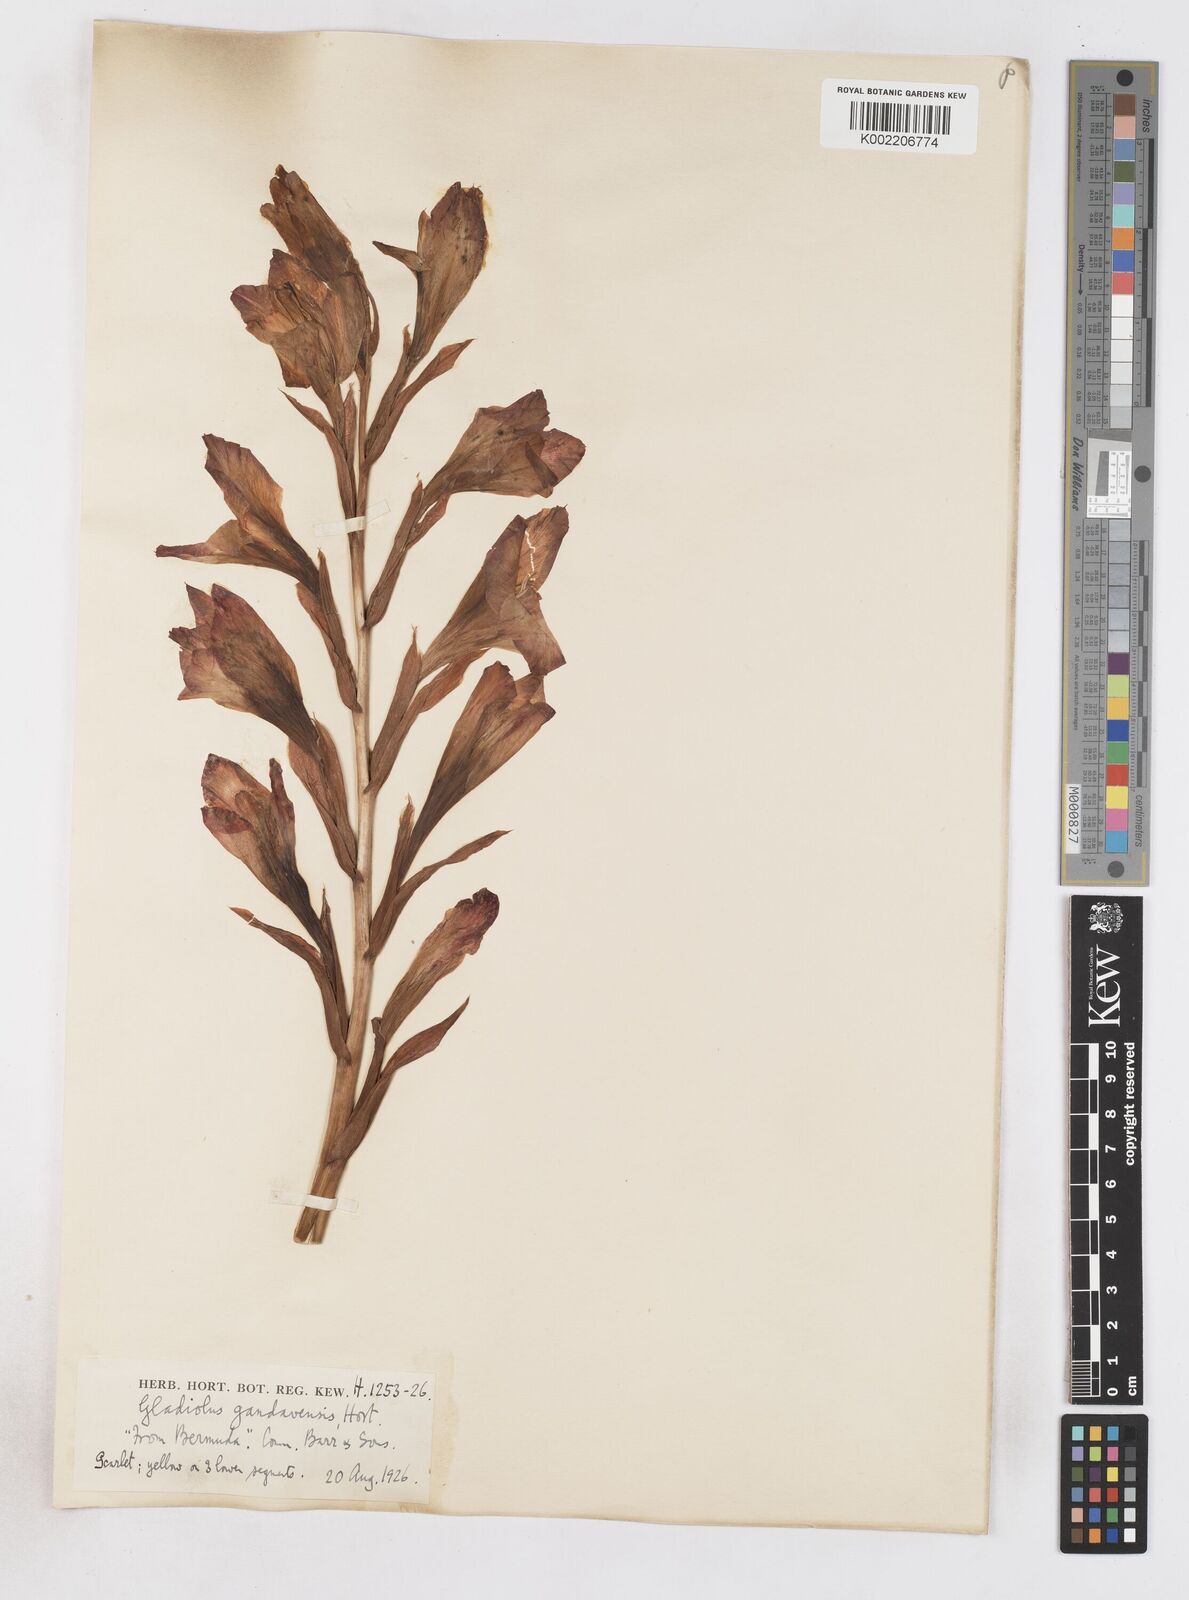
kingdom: Plantae
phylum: Tracheophyta
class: Liliopsida
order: Asparagales
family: Iridaceae
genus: Gladiolus
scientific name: Gladiolus gandavensis
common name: Gladiolus
